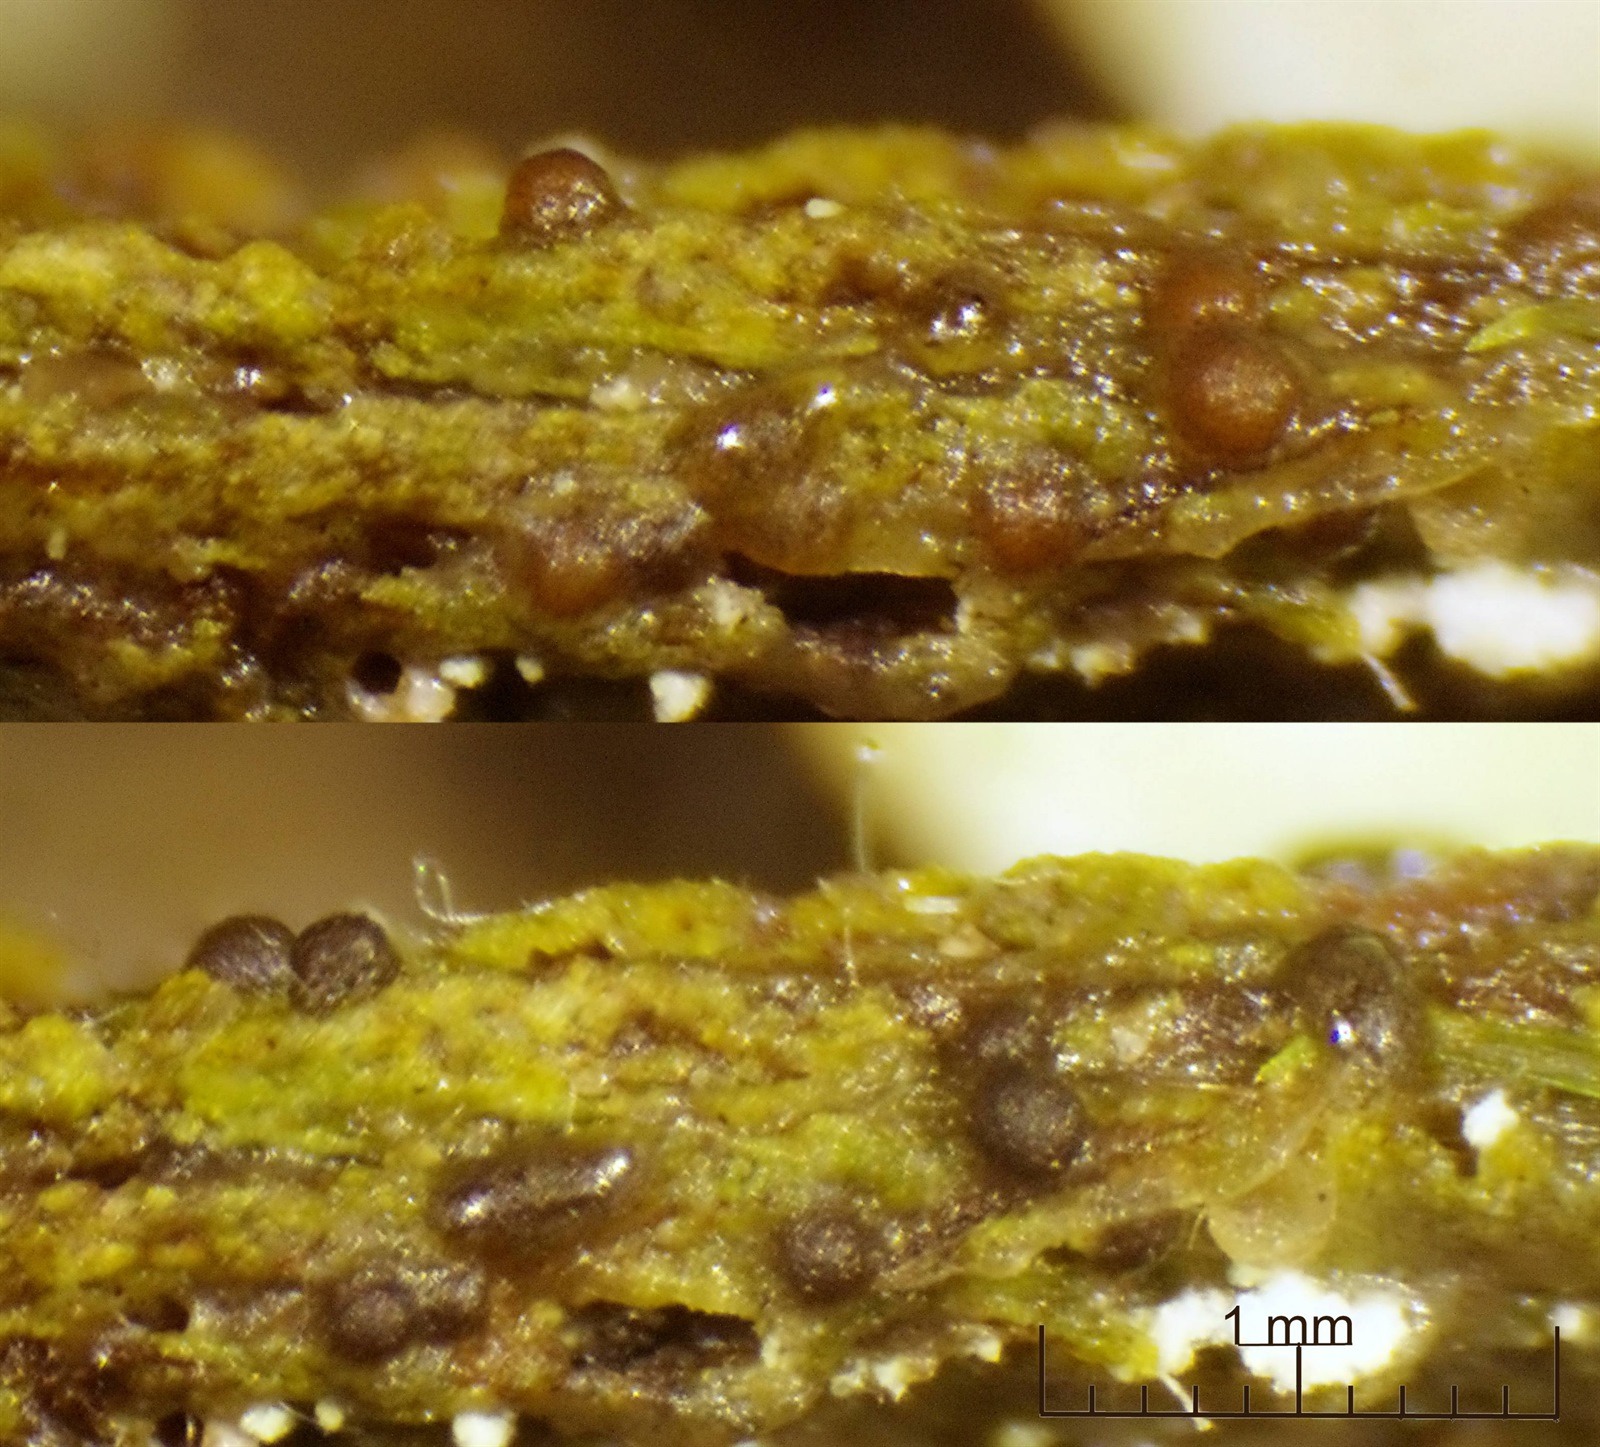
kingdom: Protozoa
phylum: Mycetozoa
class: Myxomycetes
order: Cribrariales
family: Liceaceae
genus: Licea
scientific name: Licea marginata
